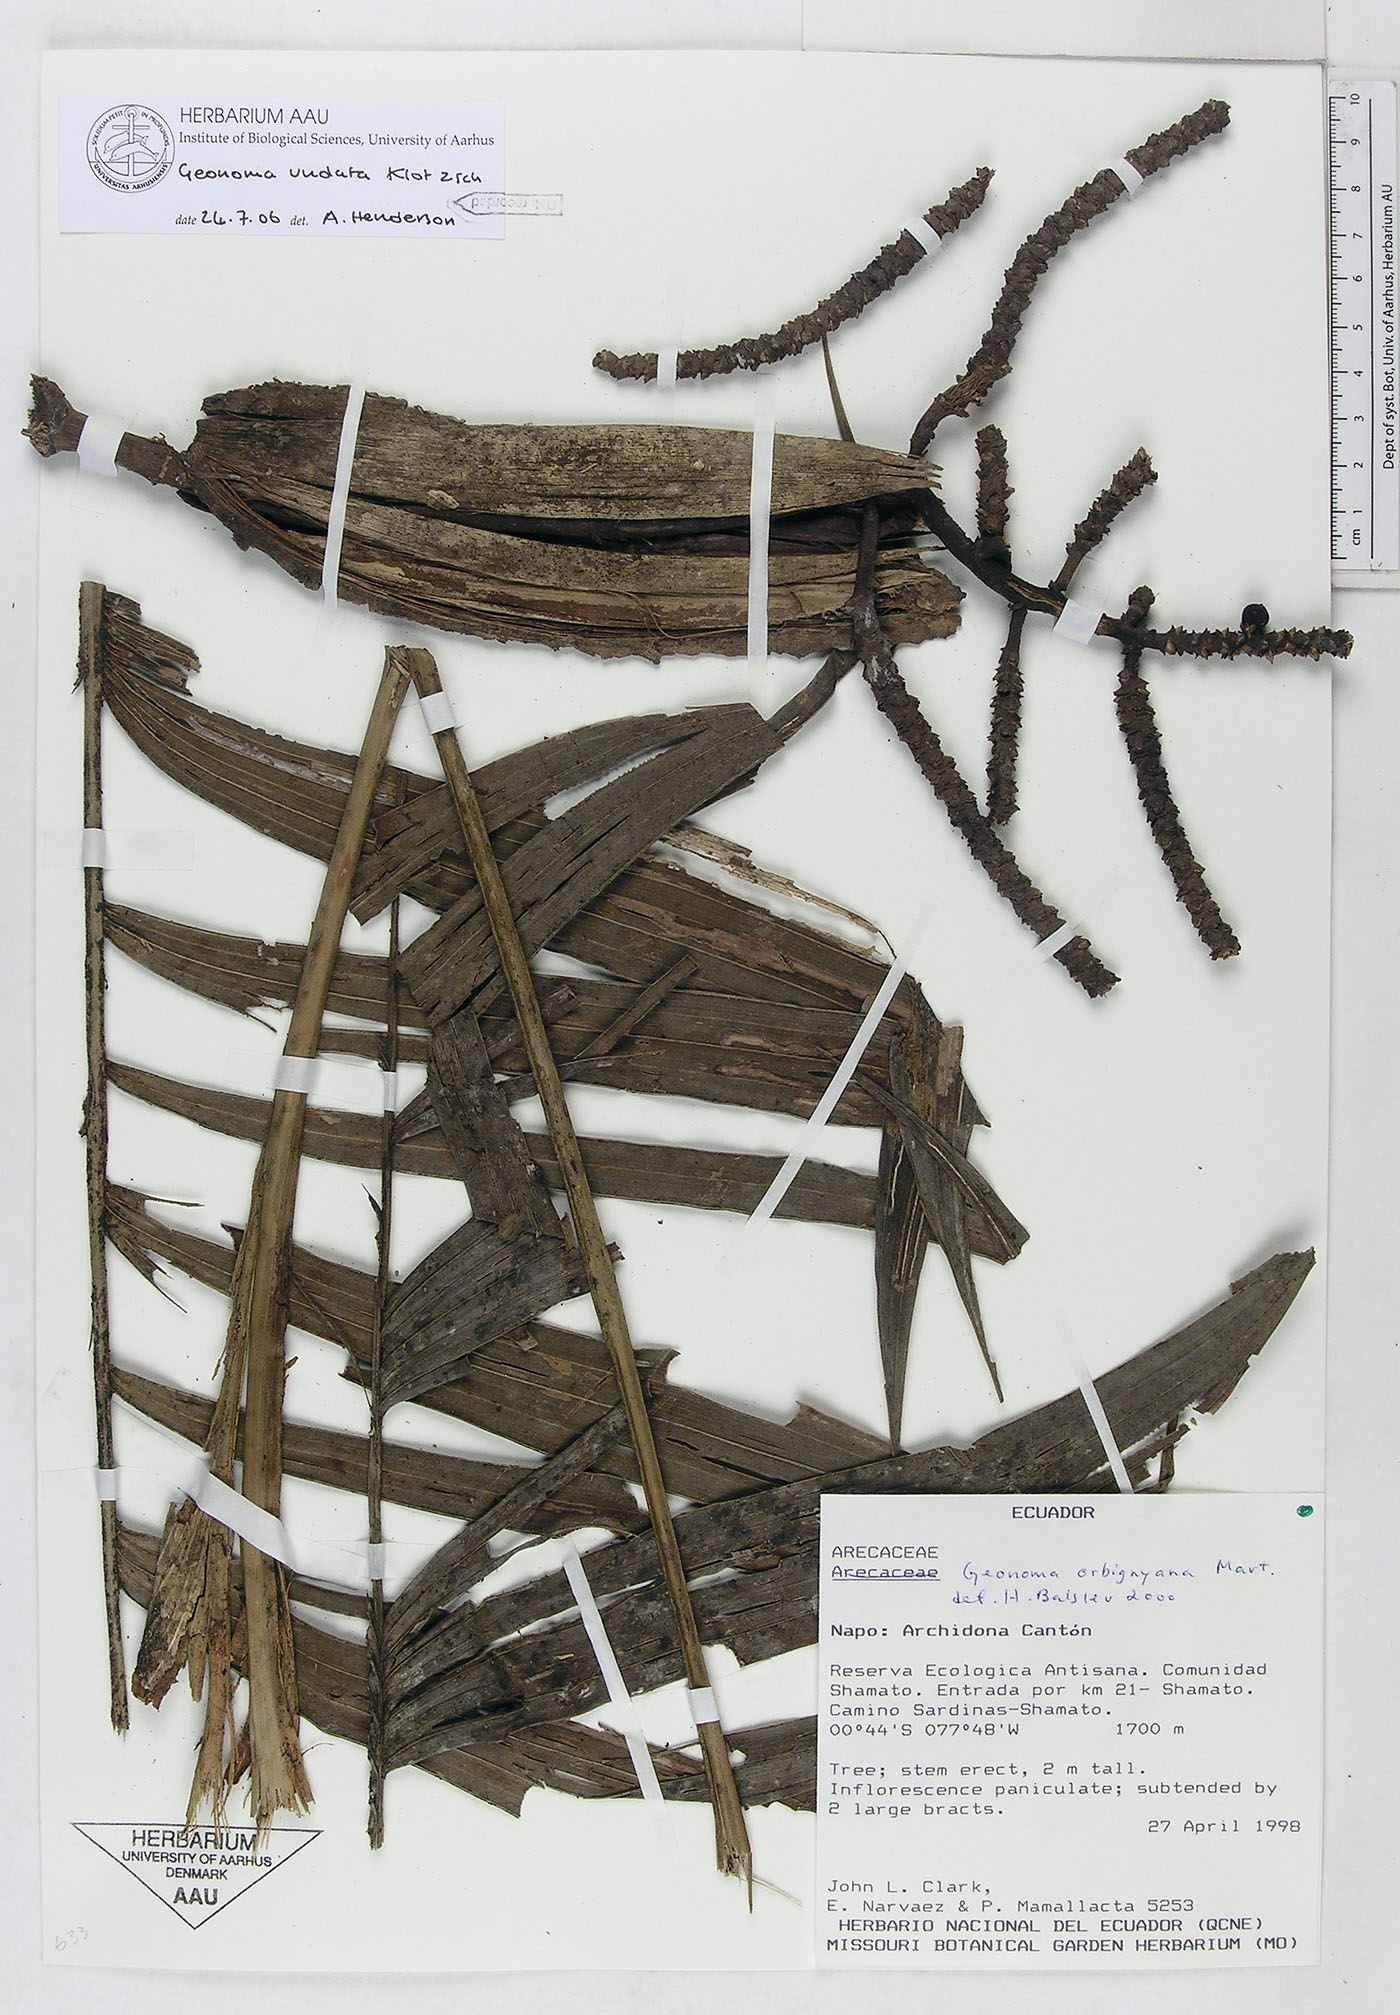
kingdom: Plantae
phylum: Tracheophyta
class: Liliopsida
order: Arecales
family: Arecaceae
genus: Geonoma
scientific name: Geonoma undata
